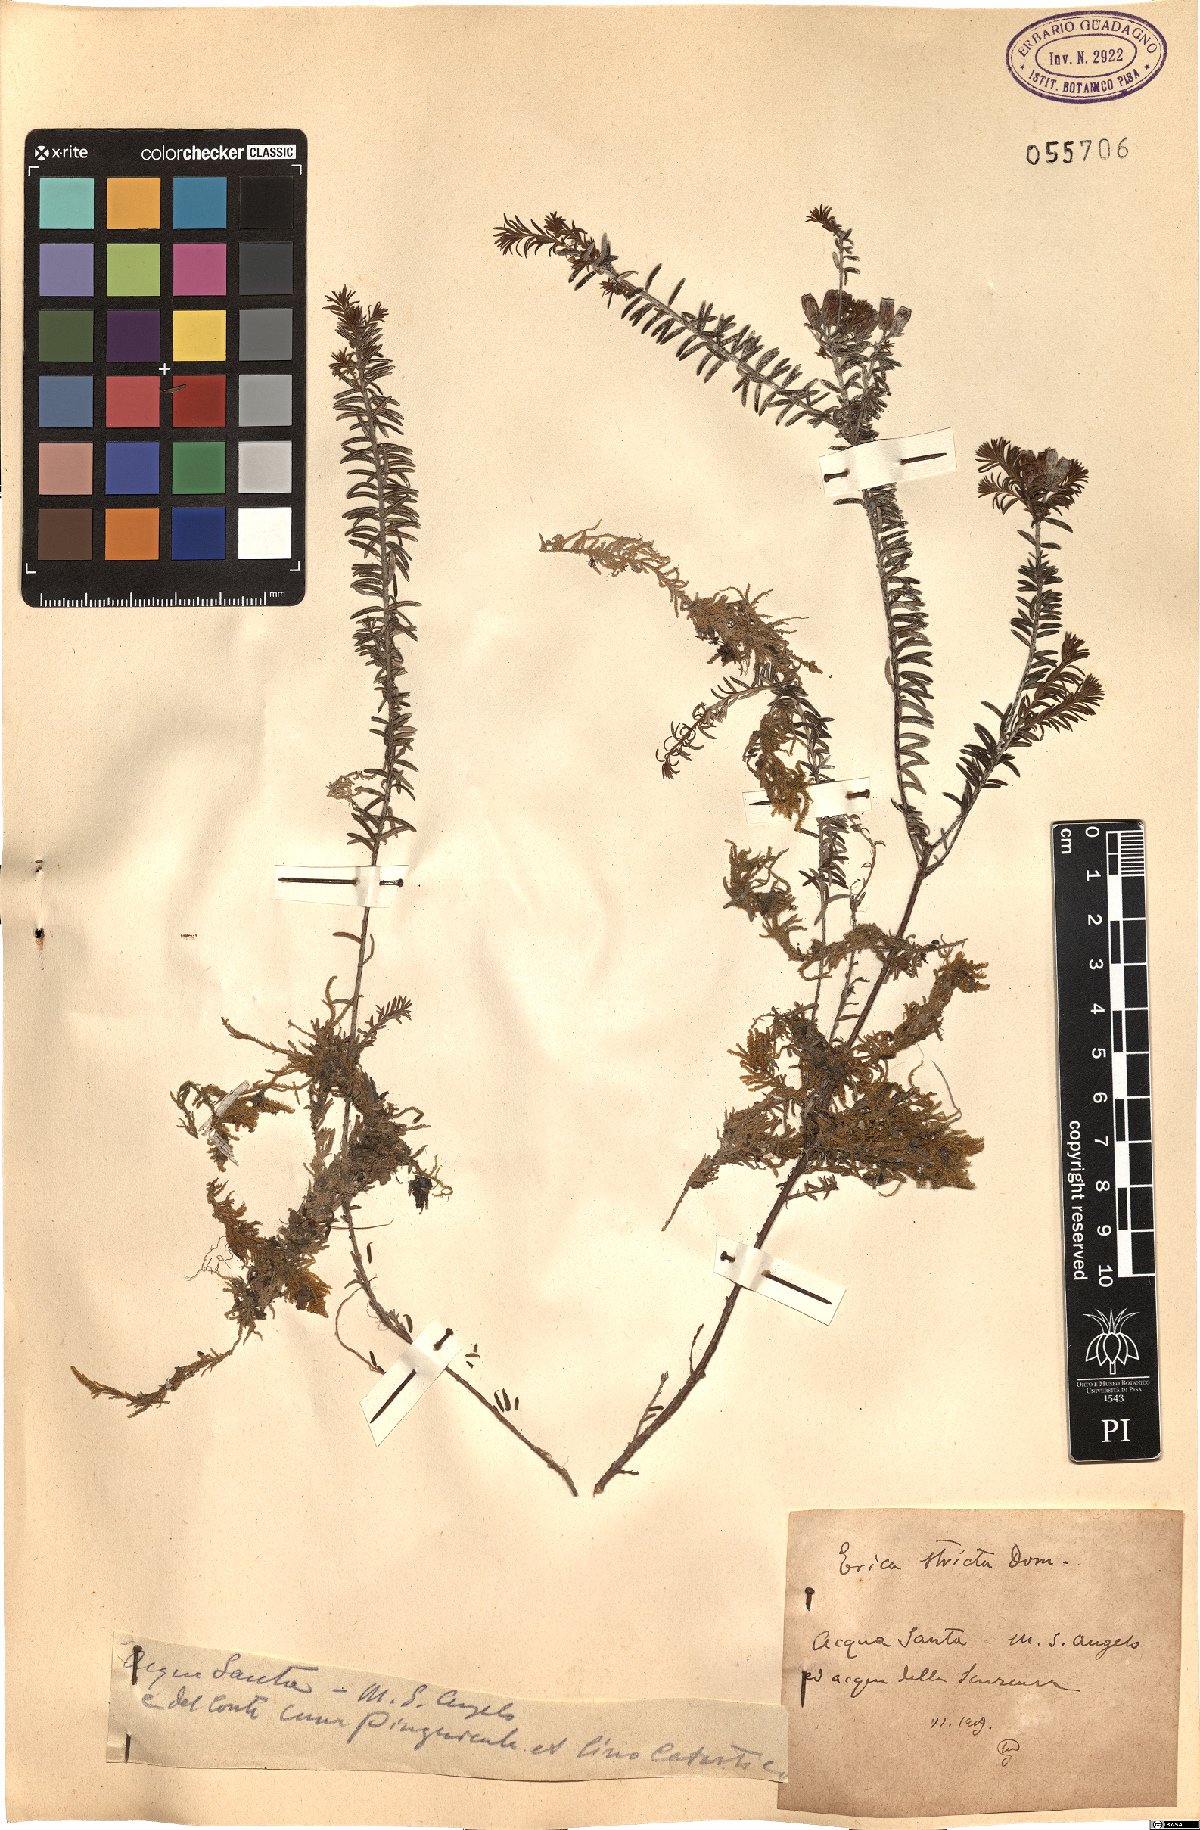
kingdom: Plantae
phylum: Tracheophyta
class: Magnoliopsida
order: Ericales
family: Ericaceae
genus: Erica
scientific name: Erica terminalis
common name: Corsican heath
